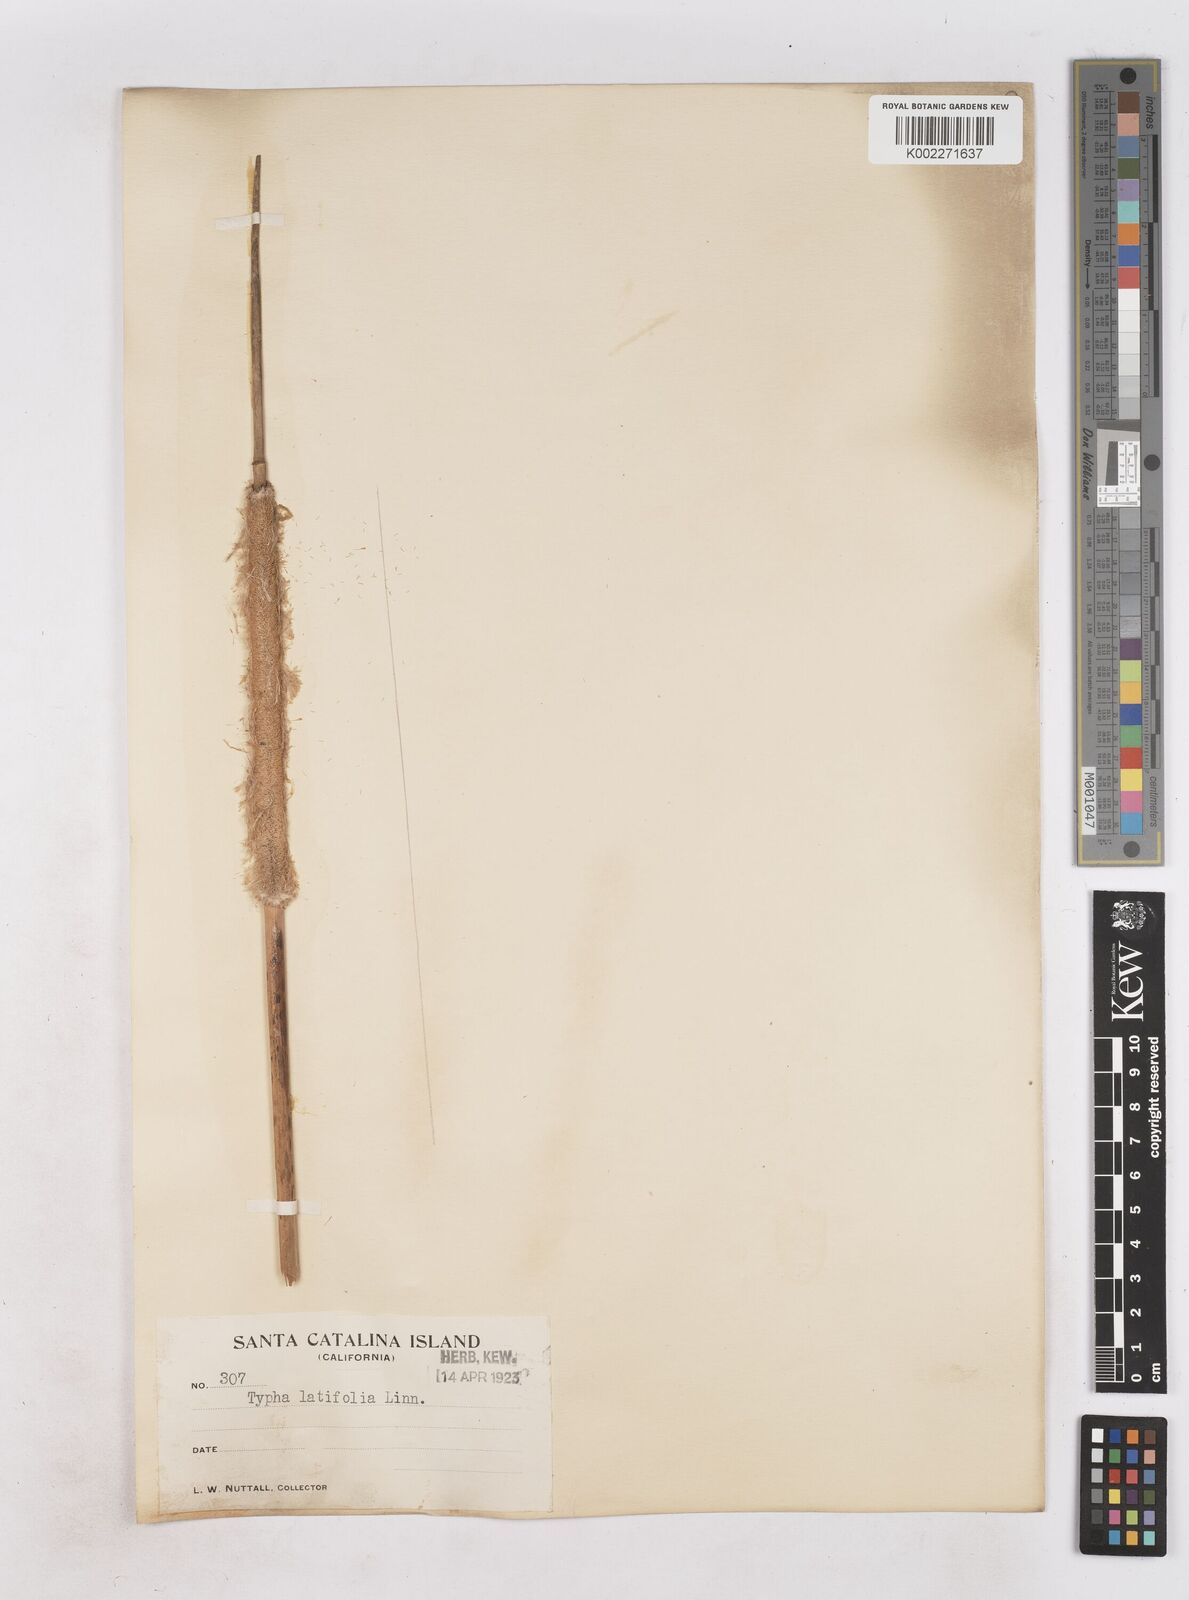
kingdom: Plantae
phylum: Tracheophyta
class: Liliopsida
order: Poales
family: Typhaceae
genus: Typha
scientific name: Typha latifolia
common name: Broadleaf cattail
